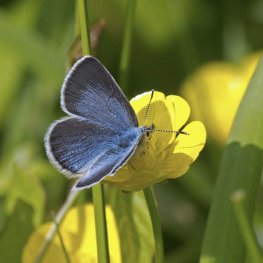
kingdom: Animalia
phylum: Arthropoda
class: Insecta
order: Lepidoptera
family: Lycaenidae
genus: Glaucopsyche
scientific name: Glaucopsyche lygdamus
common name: Silvery Blue
